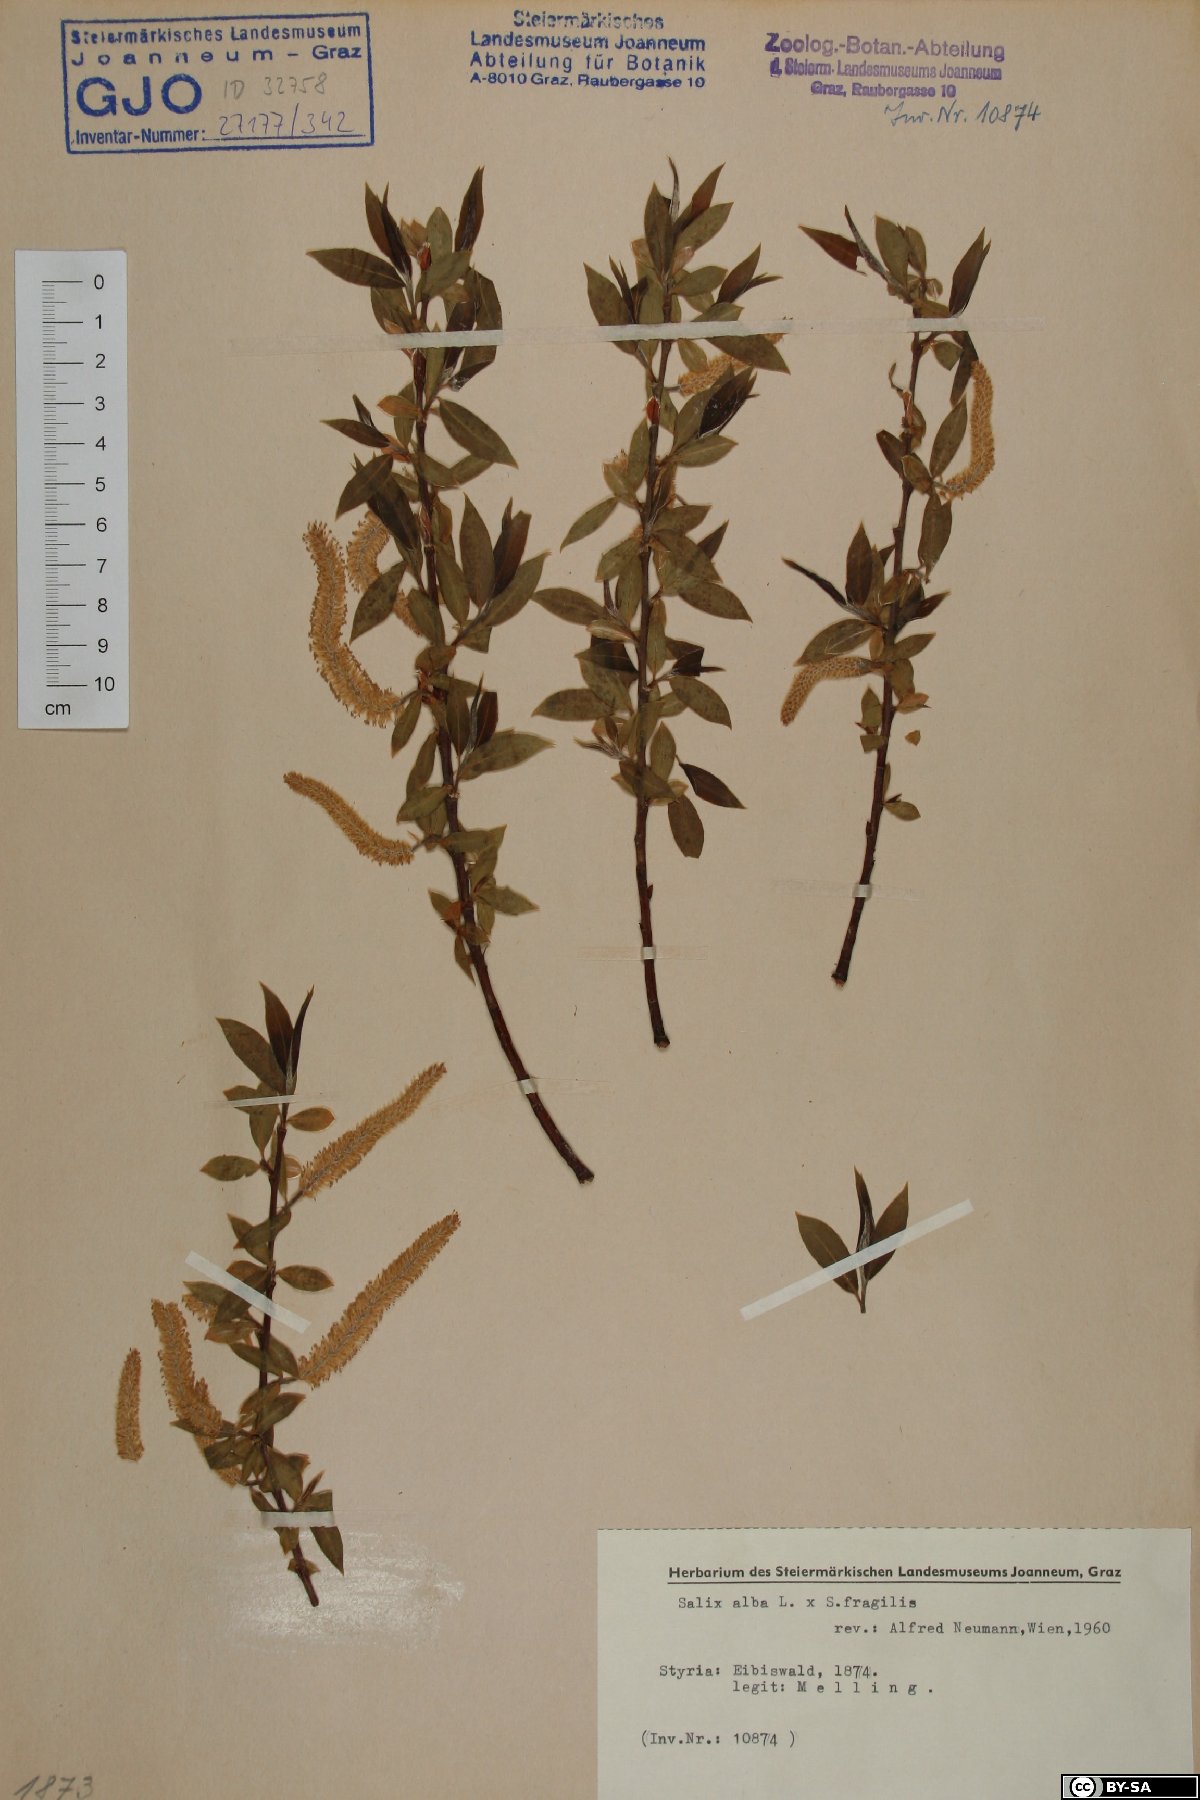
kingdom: Plantae
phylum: Tracheophyta
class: Magnoliopsida
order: Malpighiales
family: Salicaceae
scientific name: Salicaceae
